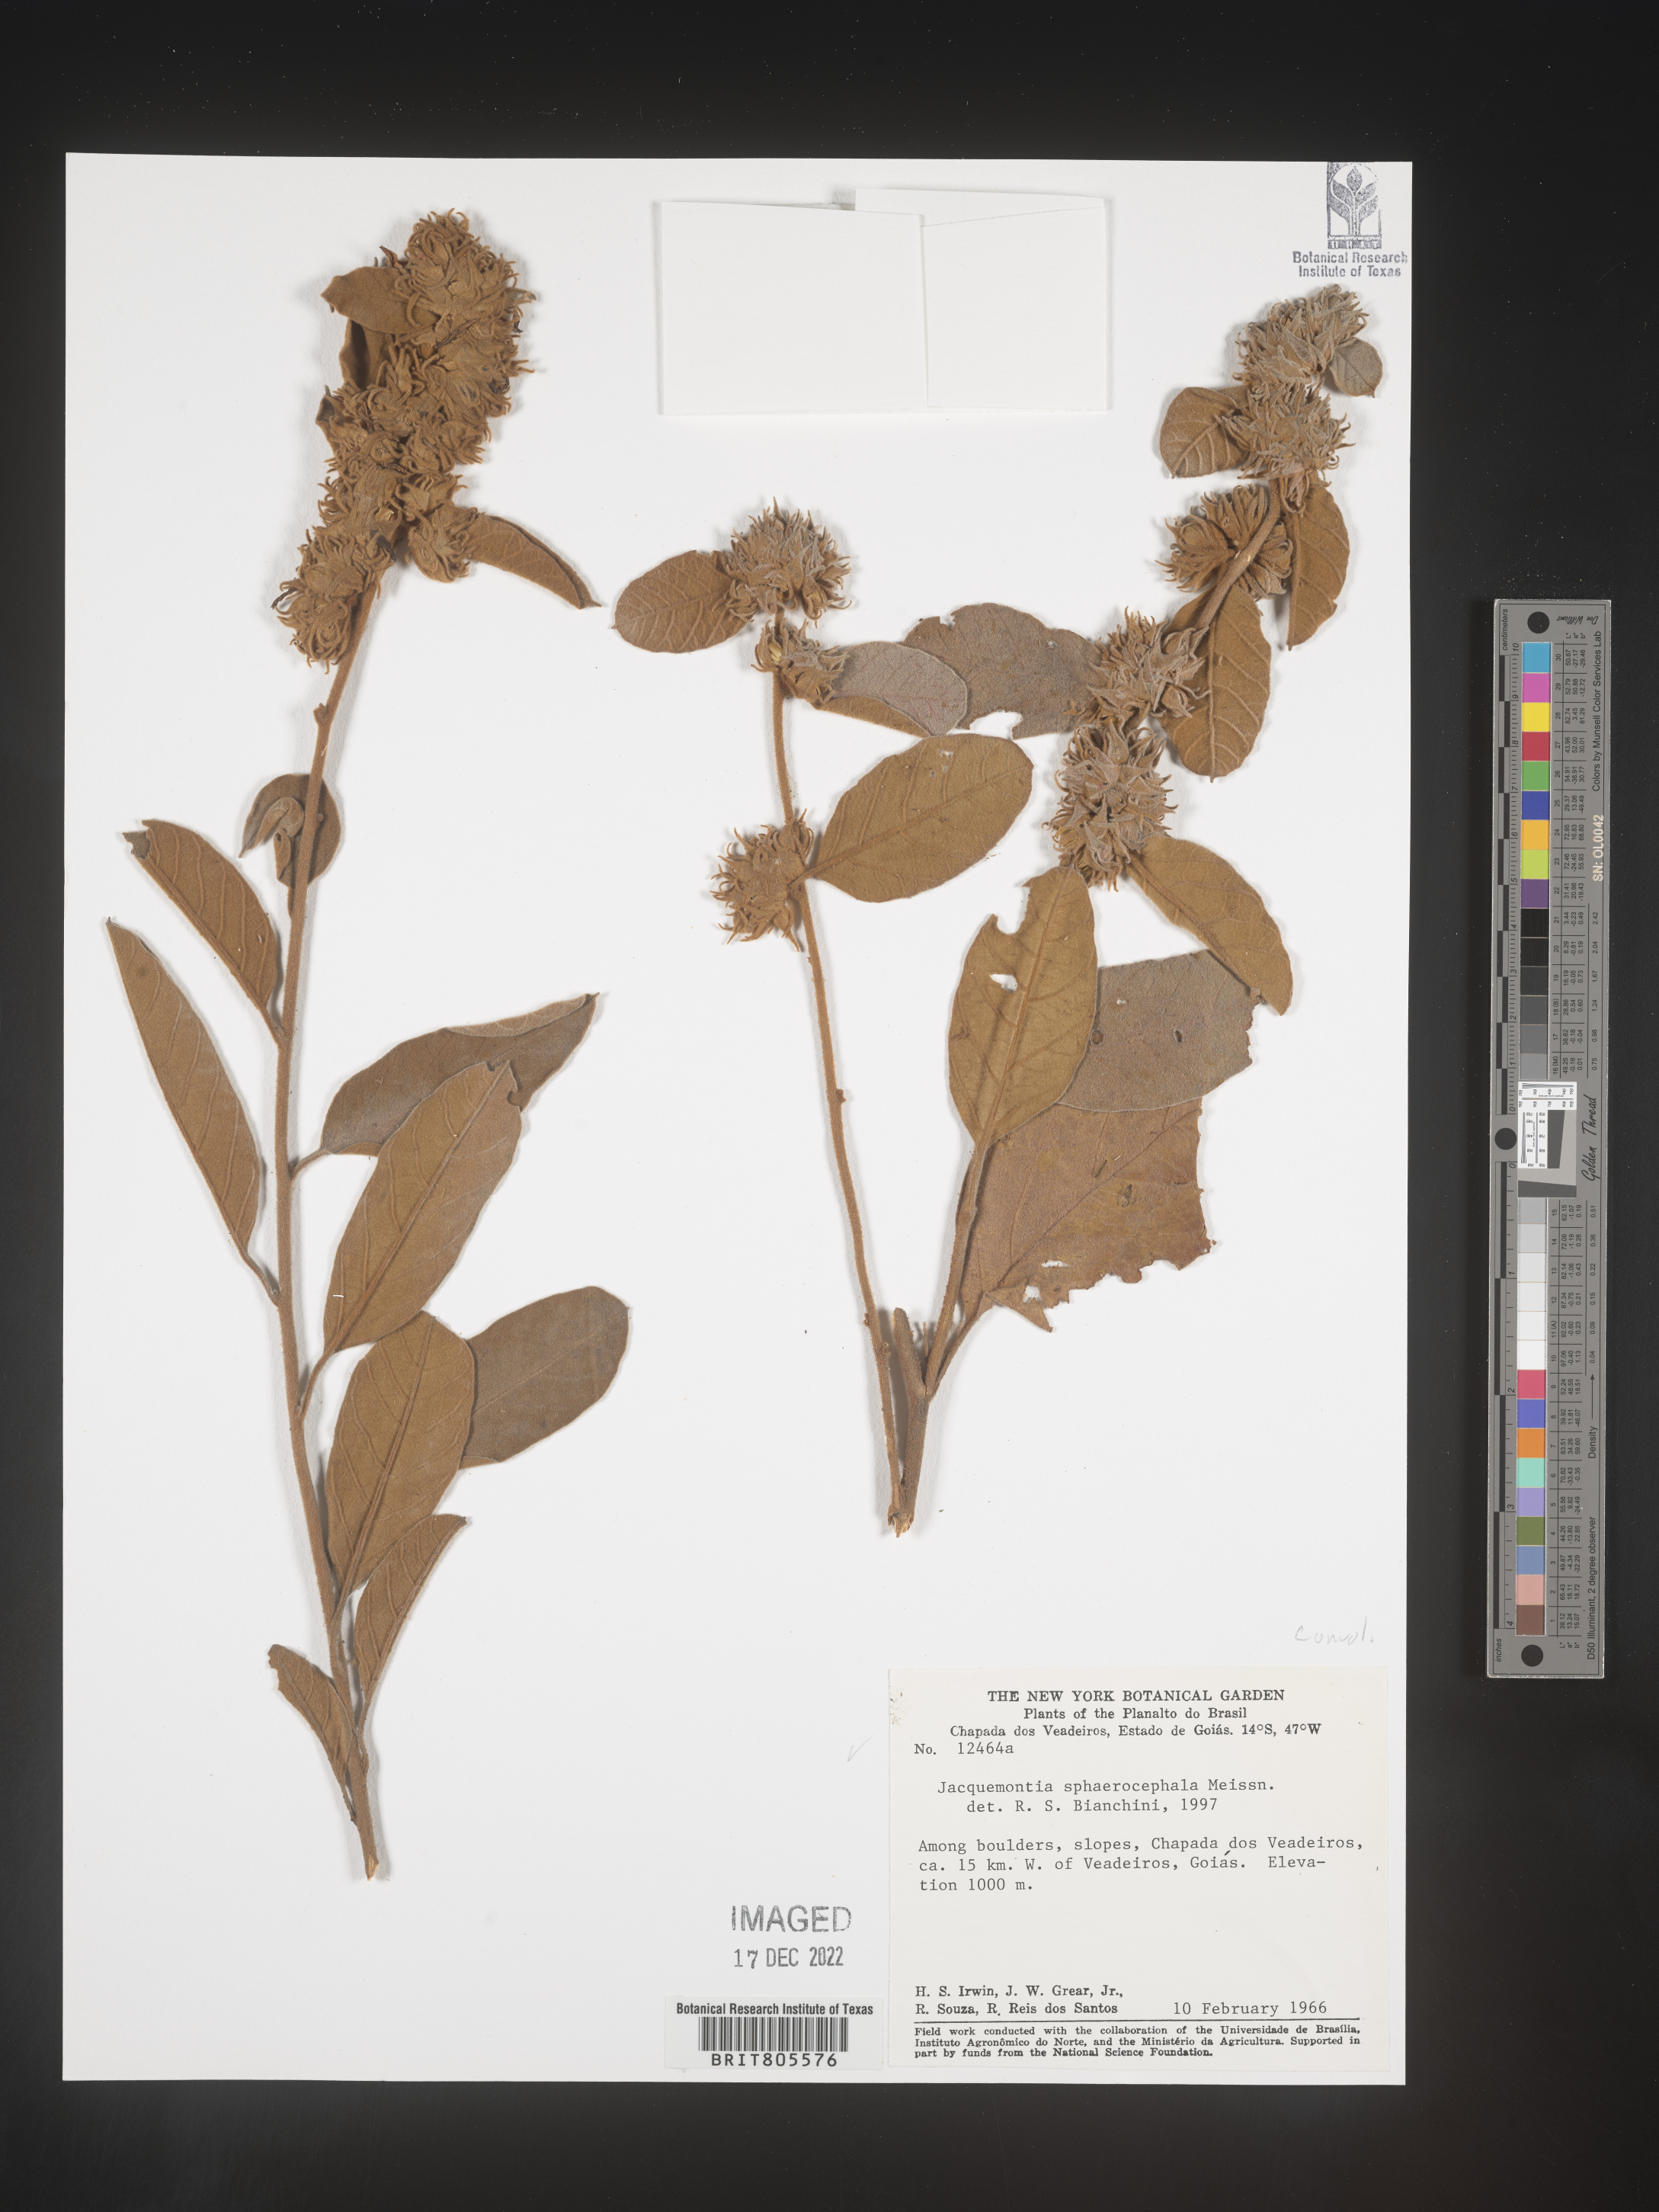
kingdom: Plantae
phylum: Tracheophyta
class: Magnoliopsida
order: Solanales
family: Convolvulaceae
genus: Jacquemontia
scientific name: Jacquemontia
